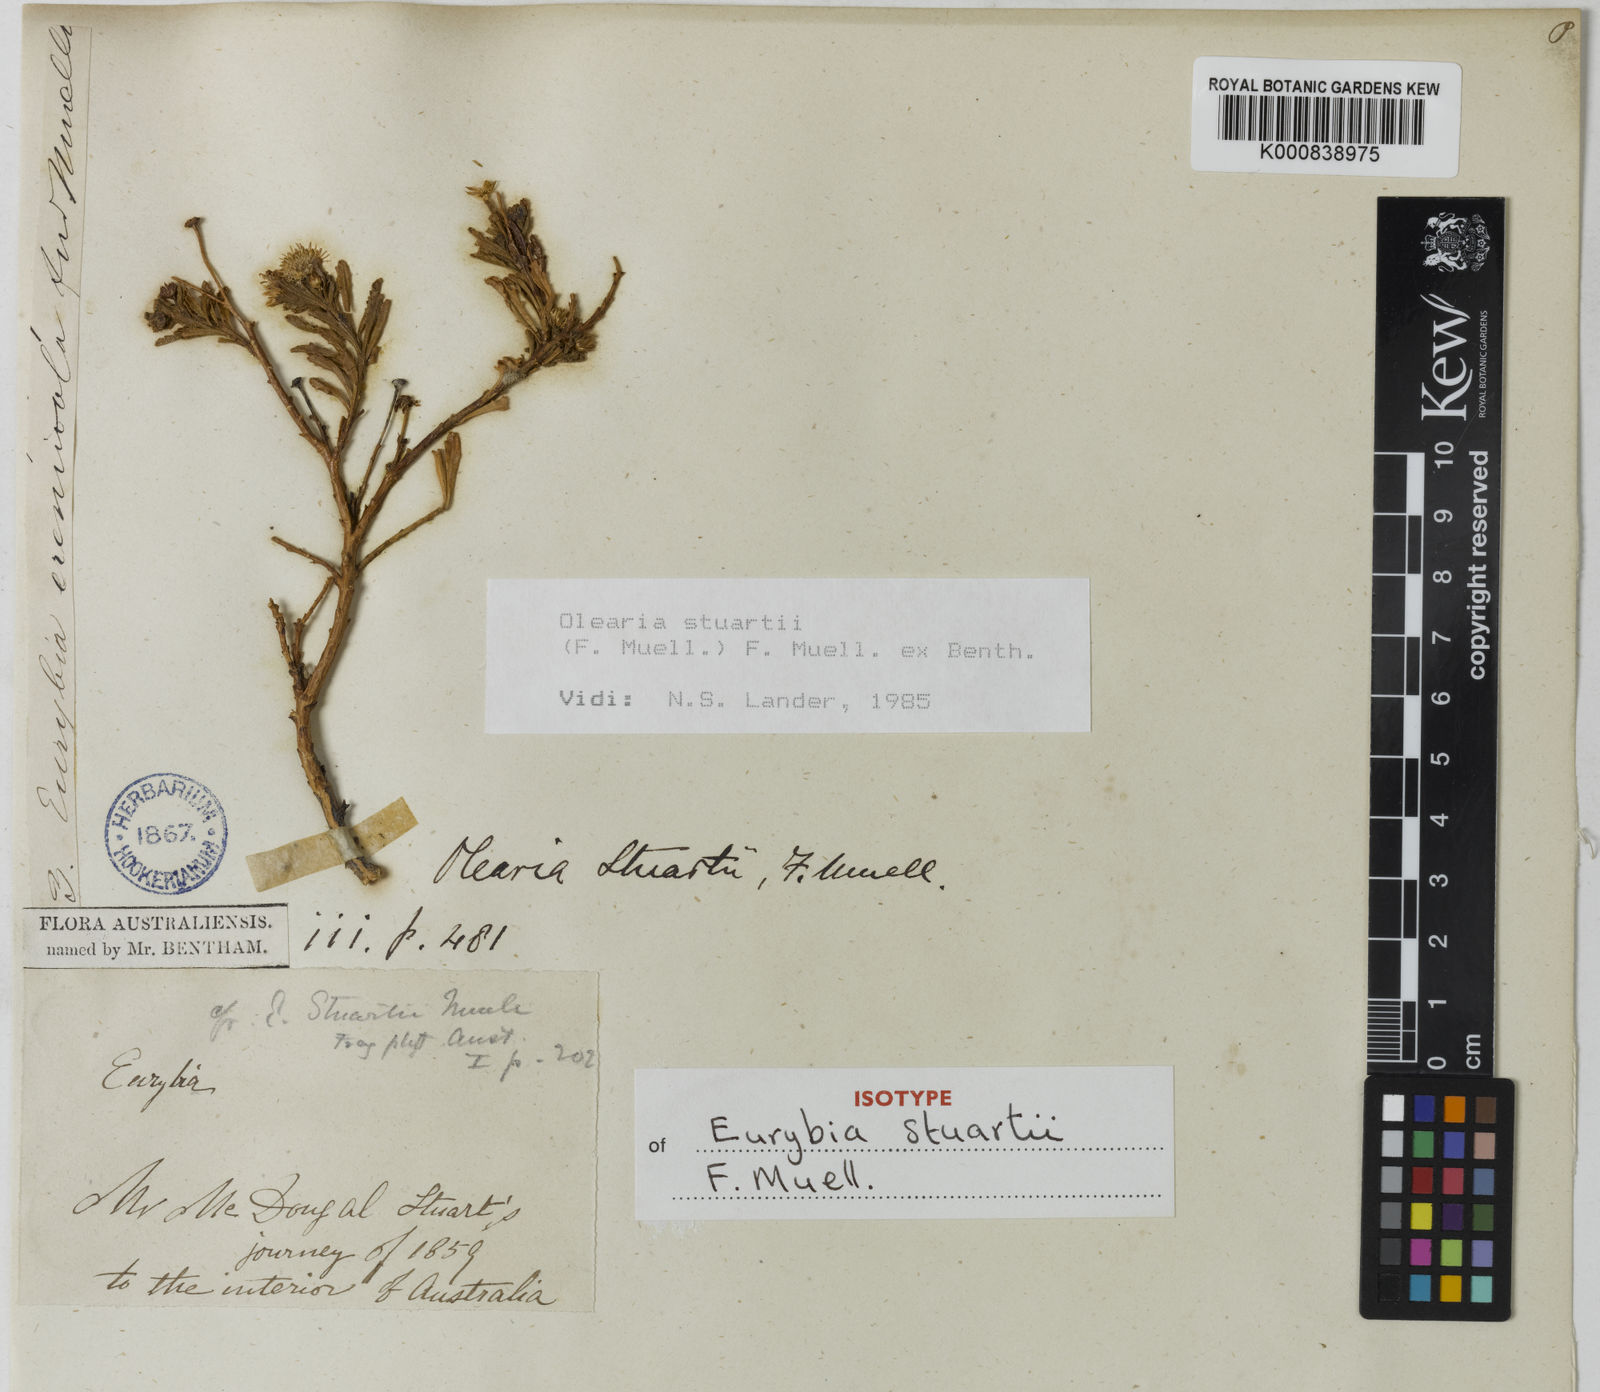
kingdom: Plantae
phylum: Tracheophyta
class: Magnoliopsida
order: Asterales
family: Asteraceae
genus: Landerolaria
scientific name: Landerolaria stuartii
